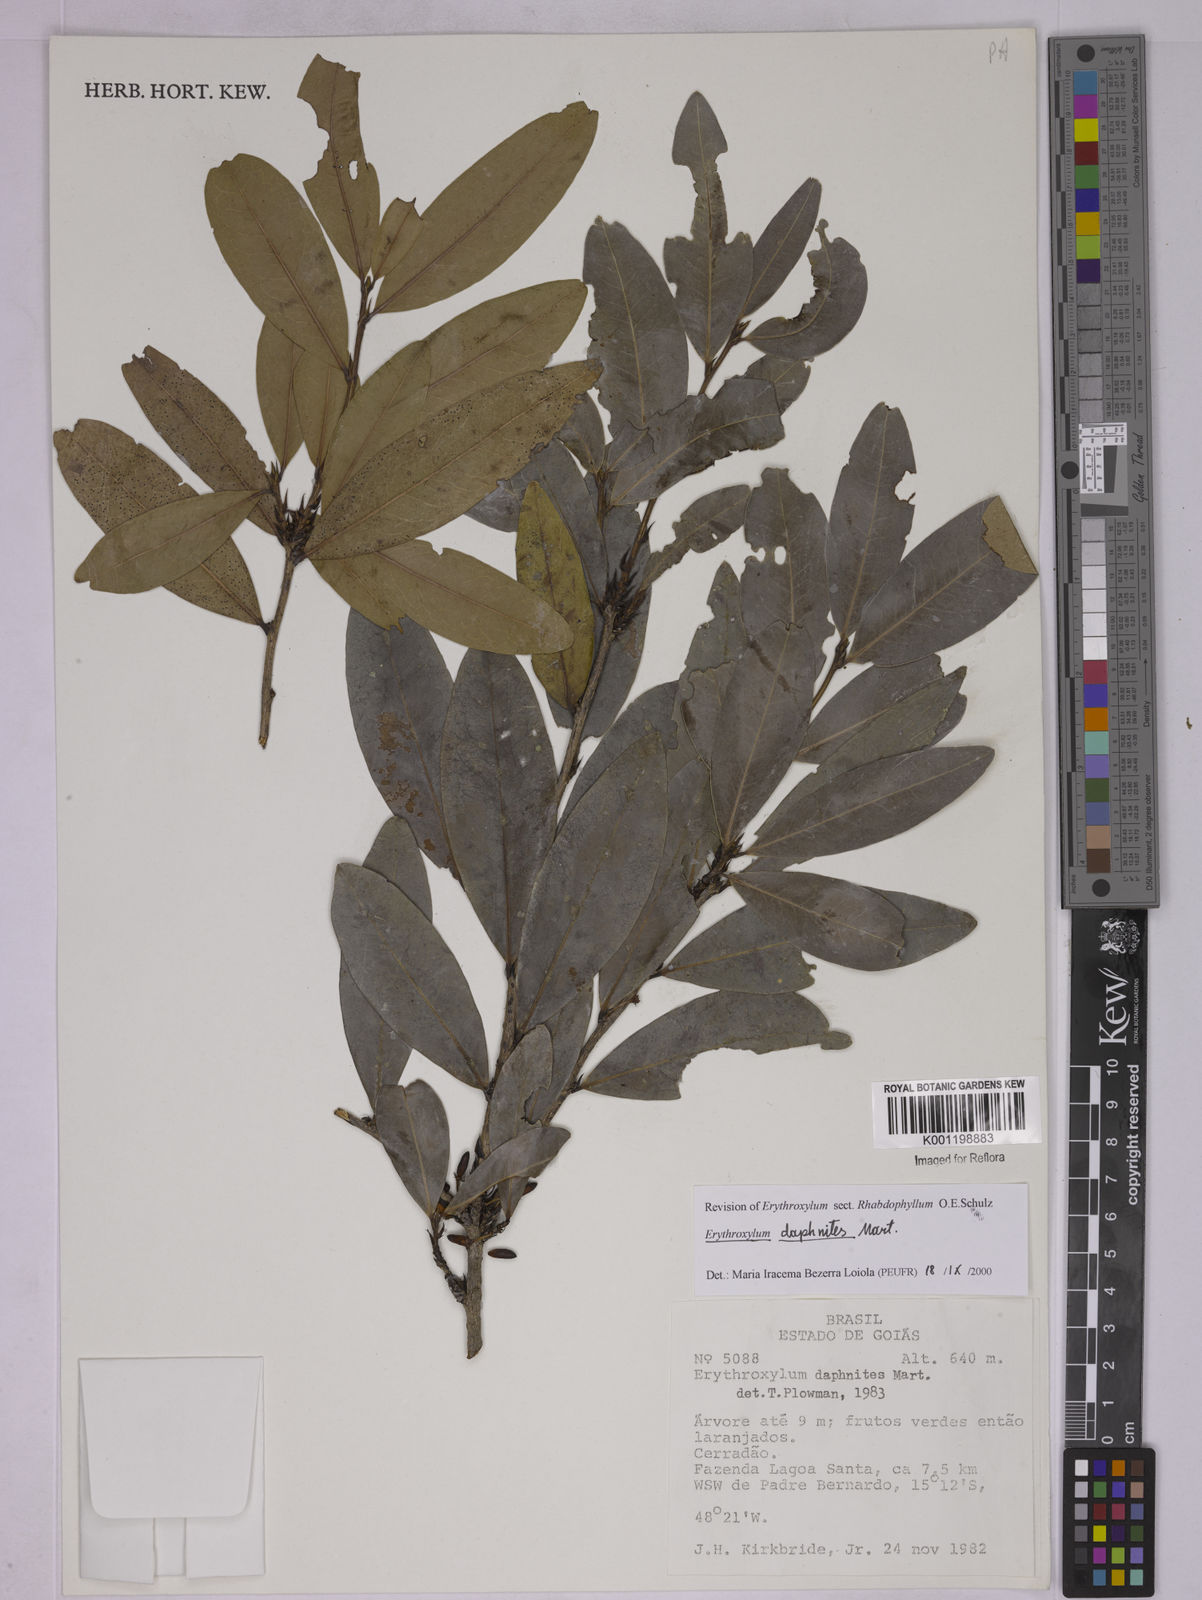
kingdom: Plantae
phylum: Tracheophyta
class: Magnoliopsida
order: Malpighiales
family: Erythroxylaceae
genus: Erythroxylum
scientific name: Erythroxylum daphnites
